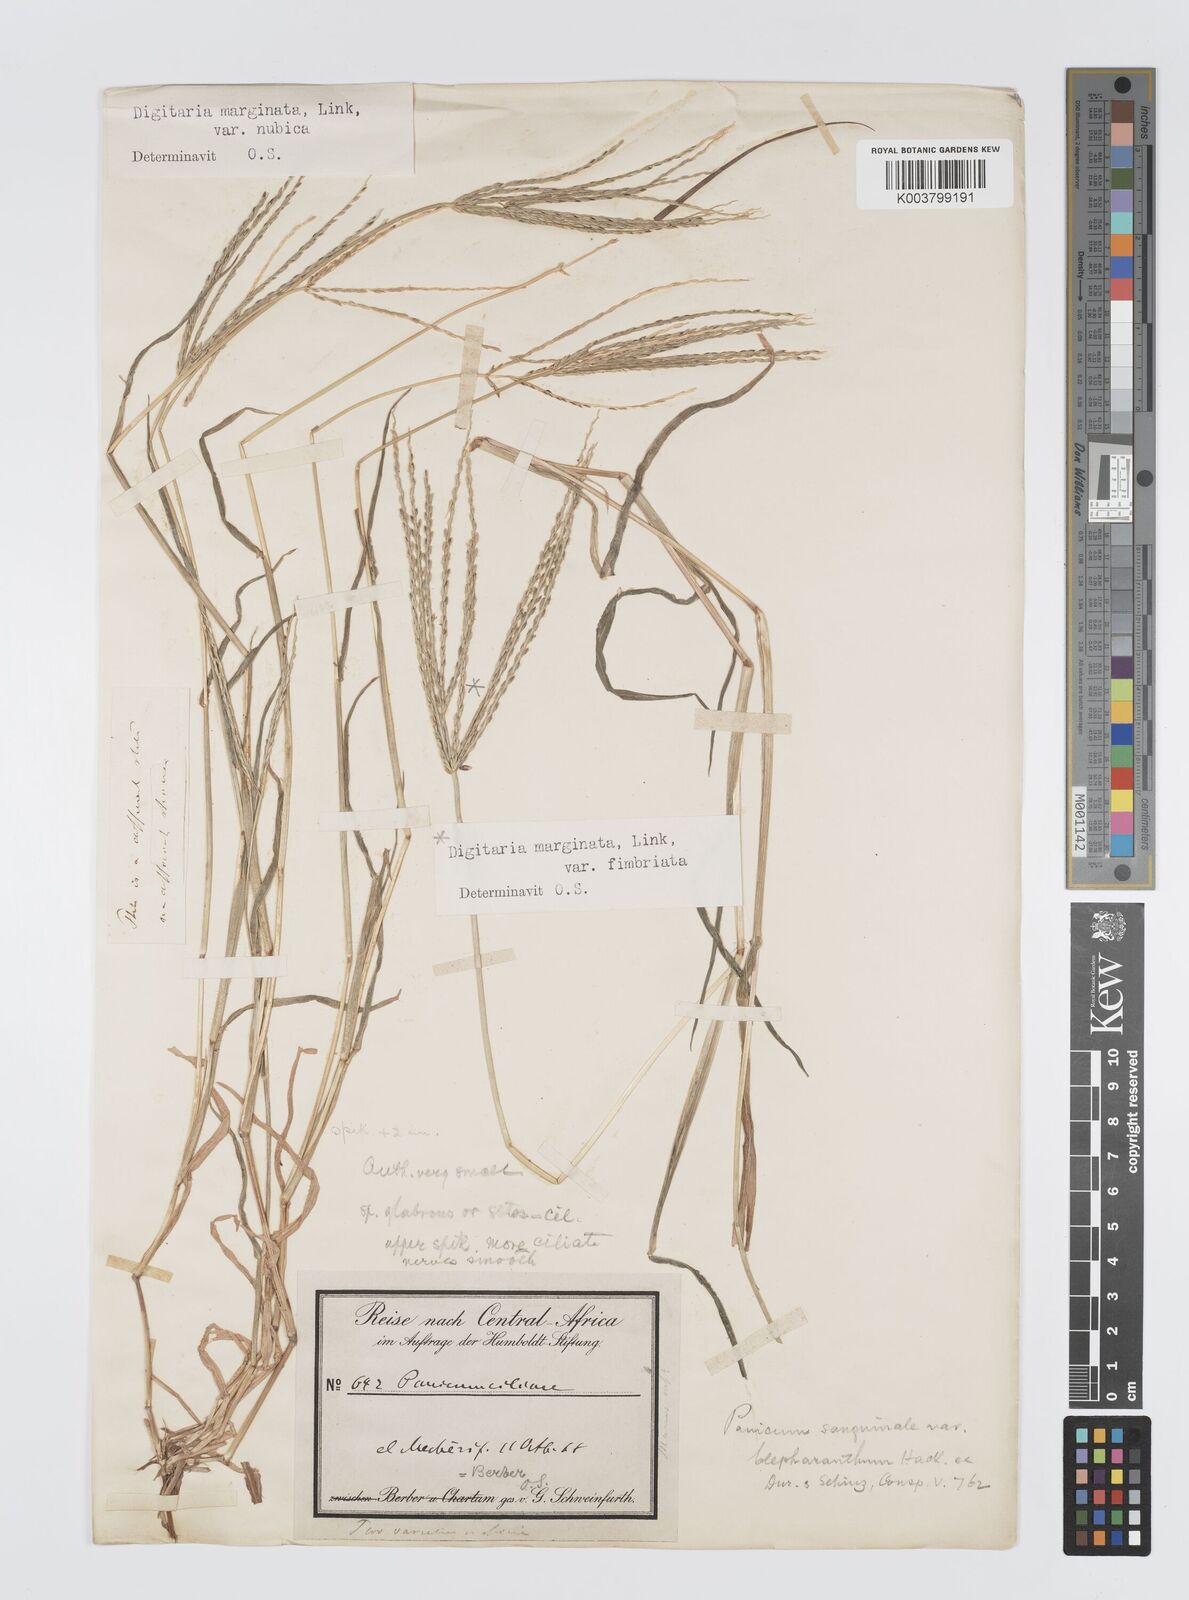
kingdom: Plantae
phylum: Tracheophyta
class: Liliopsida
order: Poales
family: Poaceae
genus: Digitaria
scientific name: Digitaria spec
